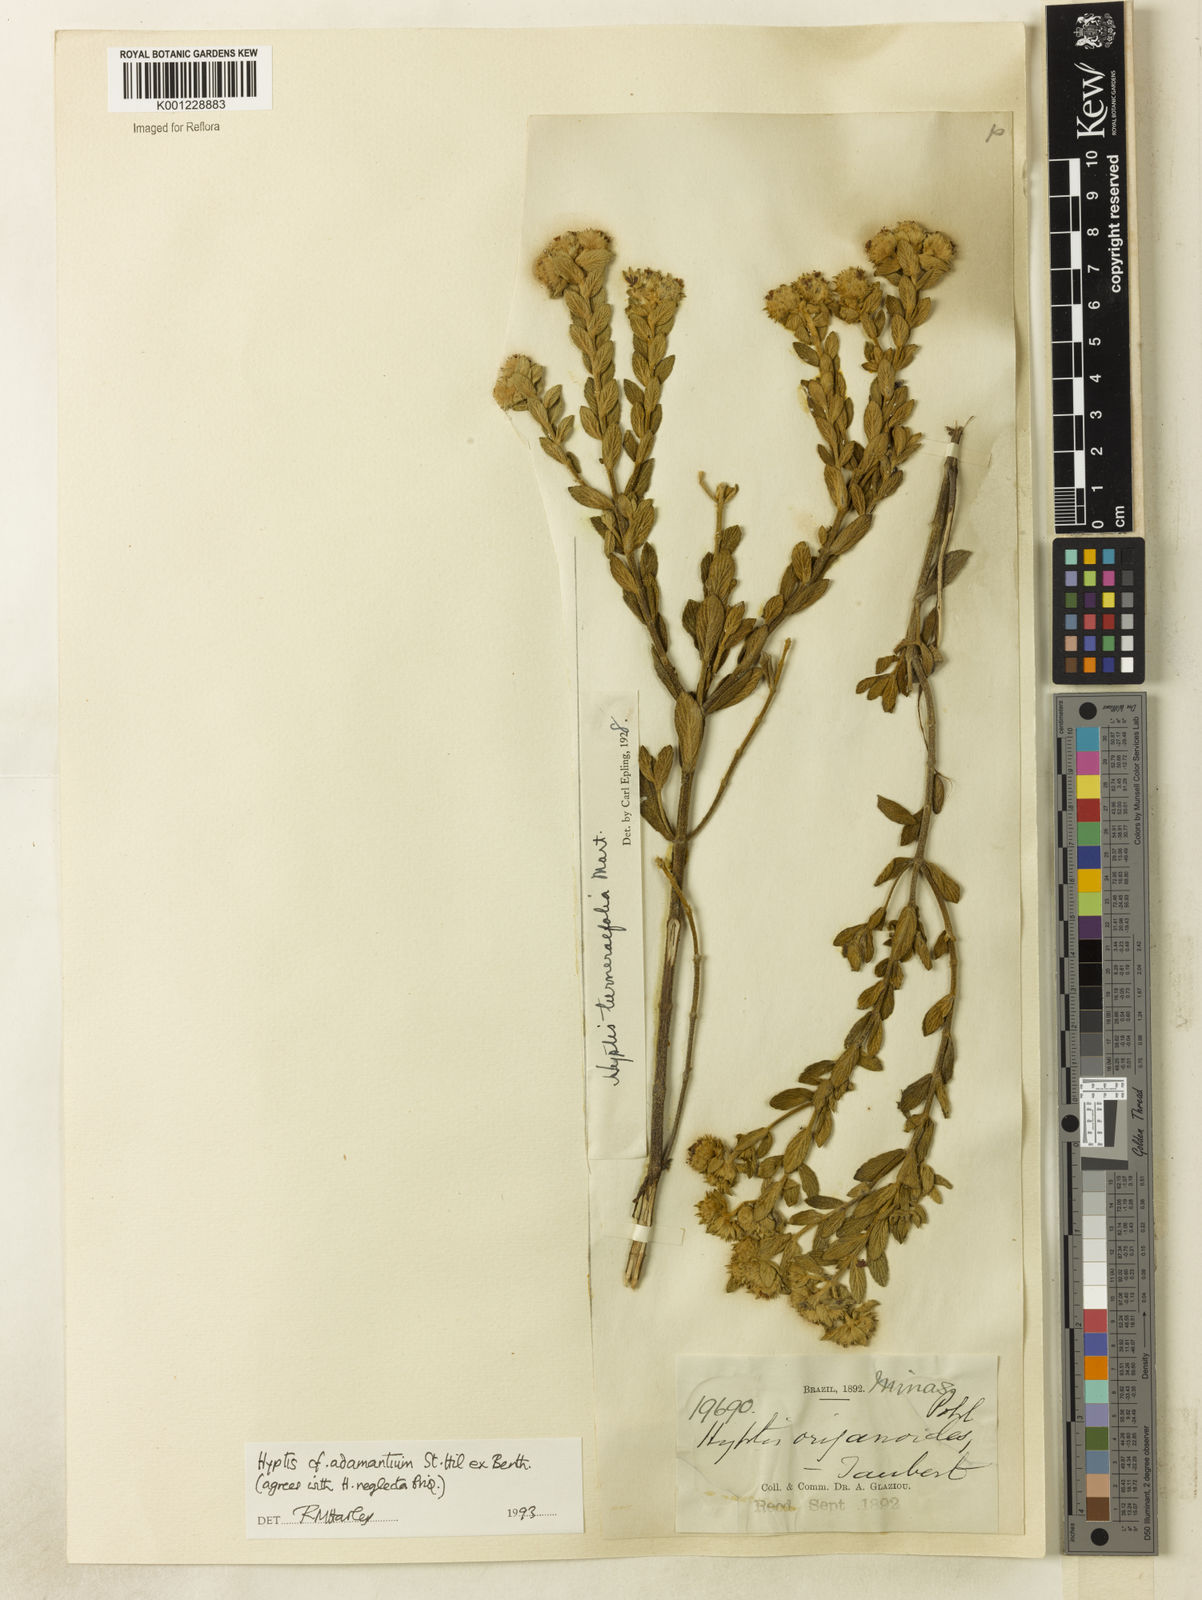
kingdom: Plantae
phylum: Tracheophyta
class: Magnoliopsida
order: Lamiales
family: Lamiaceae
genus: Hyptis
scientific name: Hyptis adamantium
